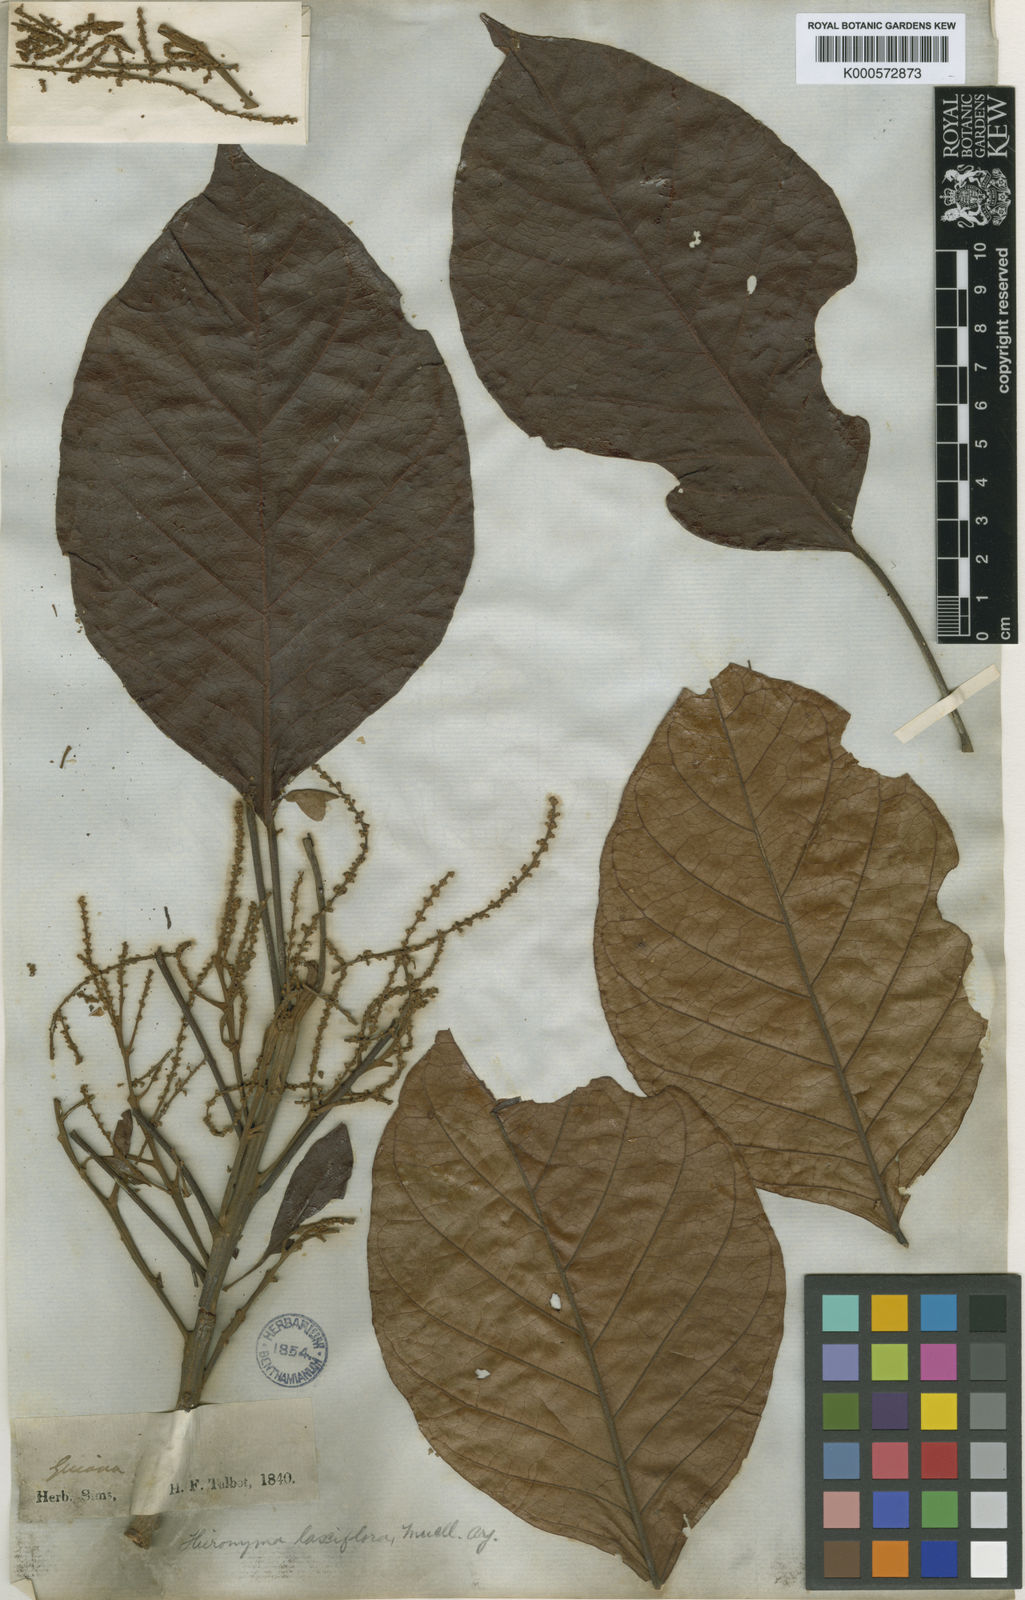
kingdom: Plantae
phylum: Tracheophyta
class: Magnoliopsida
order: Malpighiales
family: Phyllanthaceae
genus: Hieronyma
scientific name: Hieronyma
